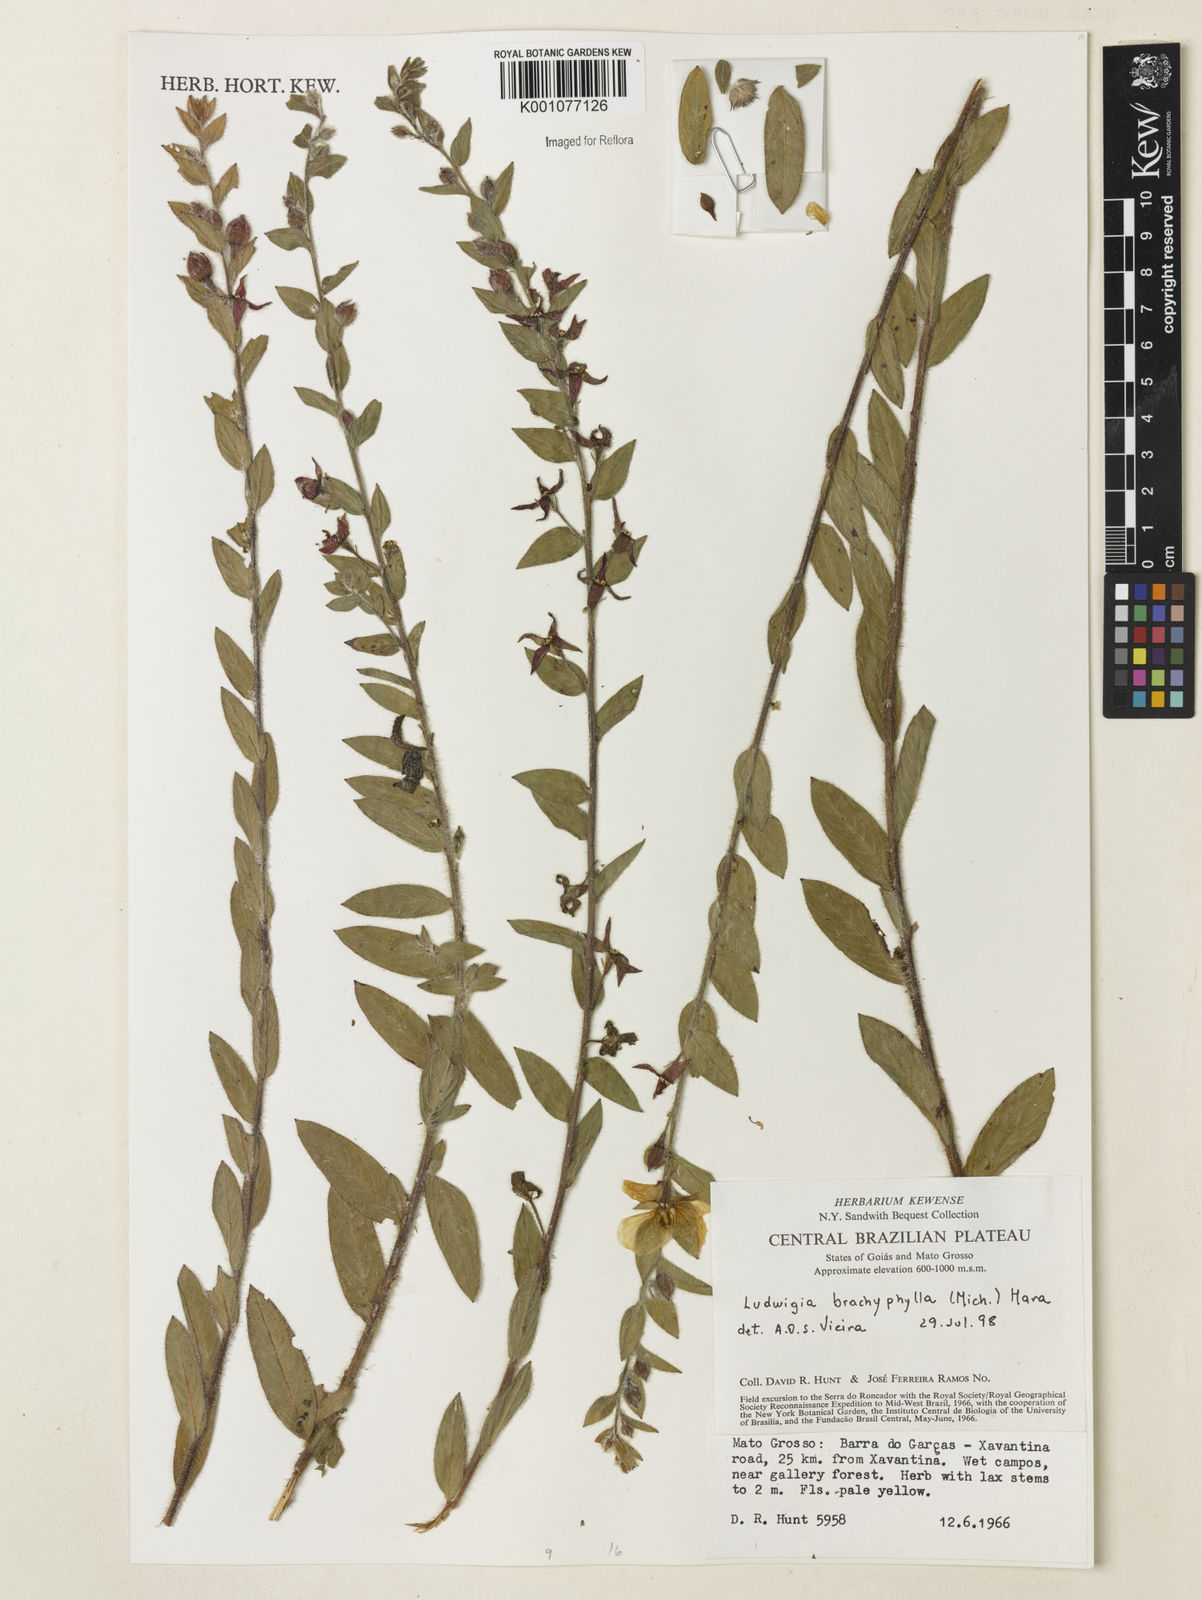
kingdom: Plantae
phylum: Tracheophyta
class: Magnoliopsida
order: Myrtales
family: Onagraceae
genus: Ludwigia
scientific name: Ludwigia brachyphylla
